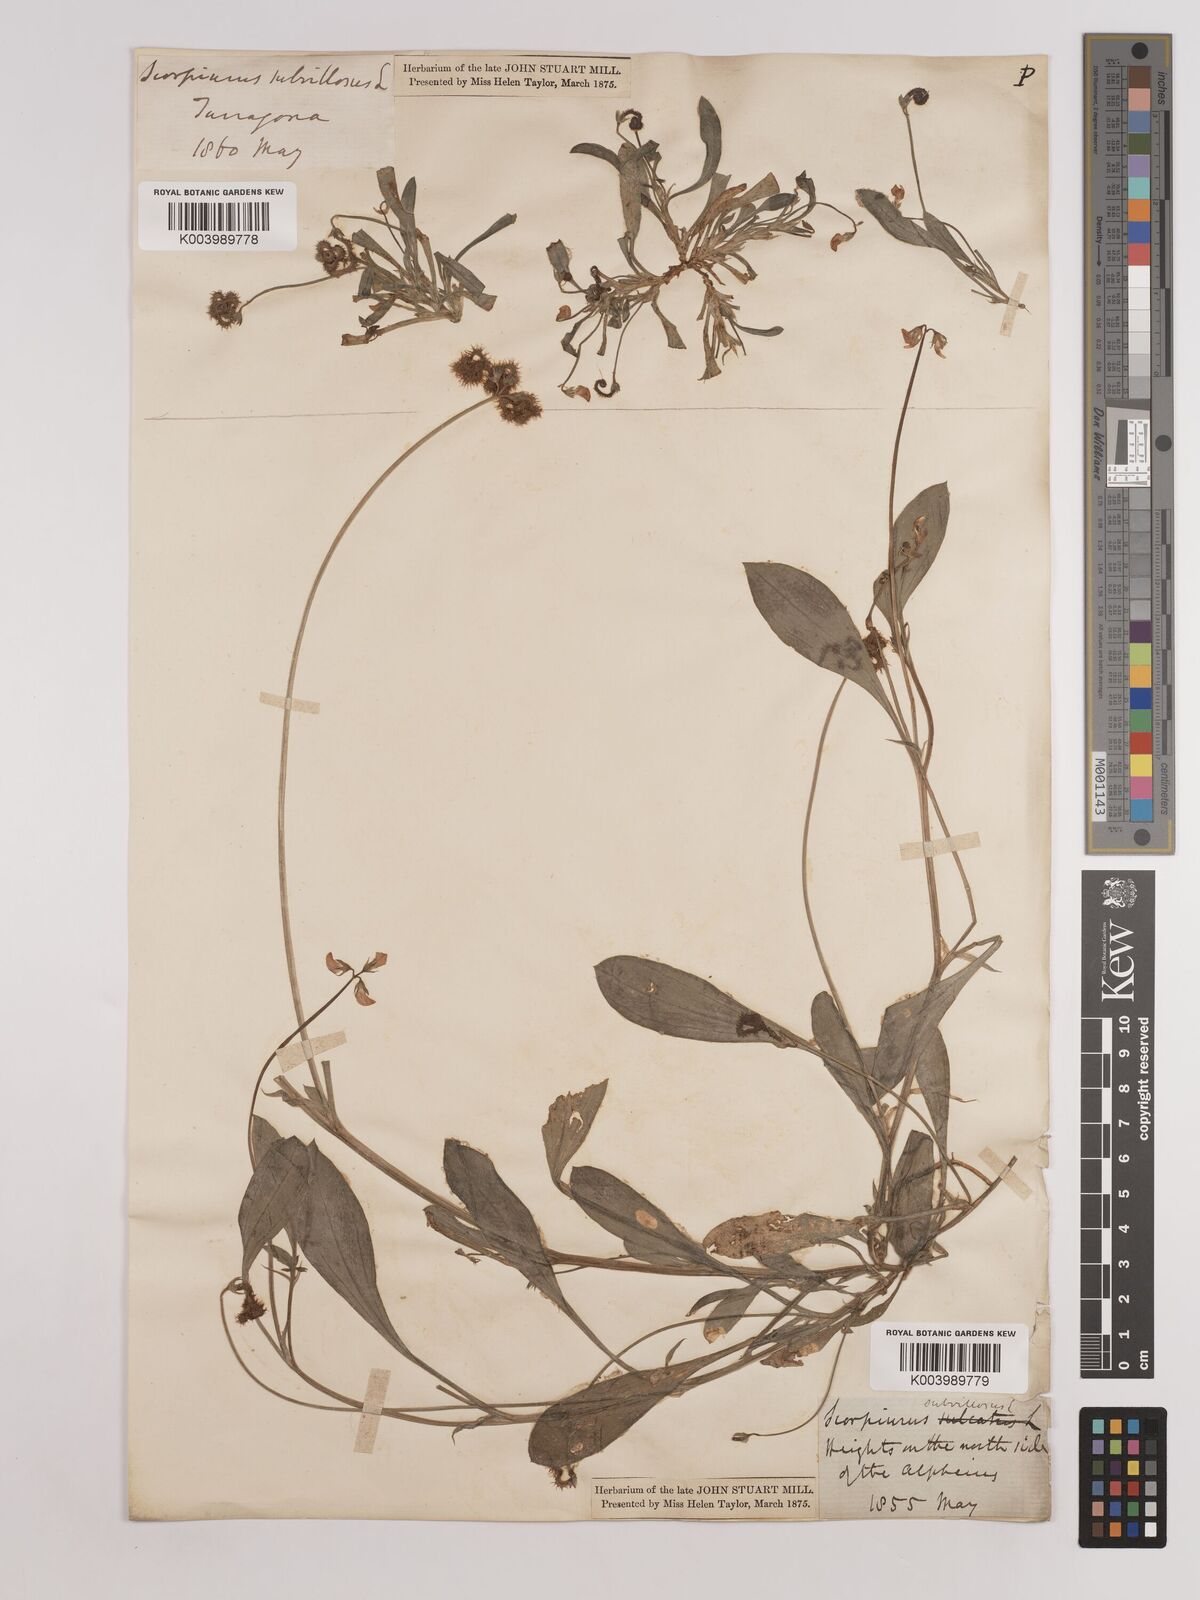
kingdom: Plantae
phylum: Tracheophyta
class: Magnoliopsida
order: Fabales
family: Fabaceae
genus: Scorpiurus
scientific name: Scorpiurus muricatus
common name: Caterpillar-plant
